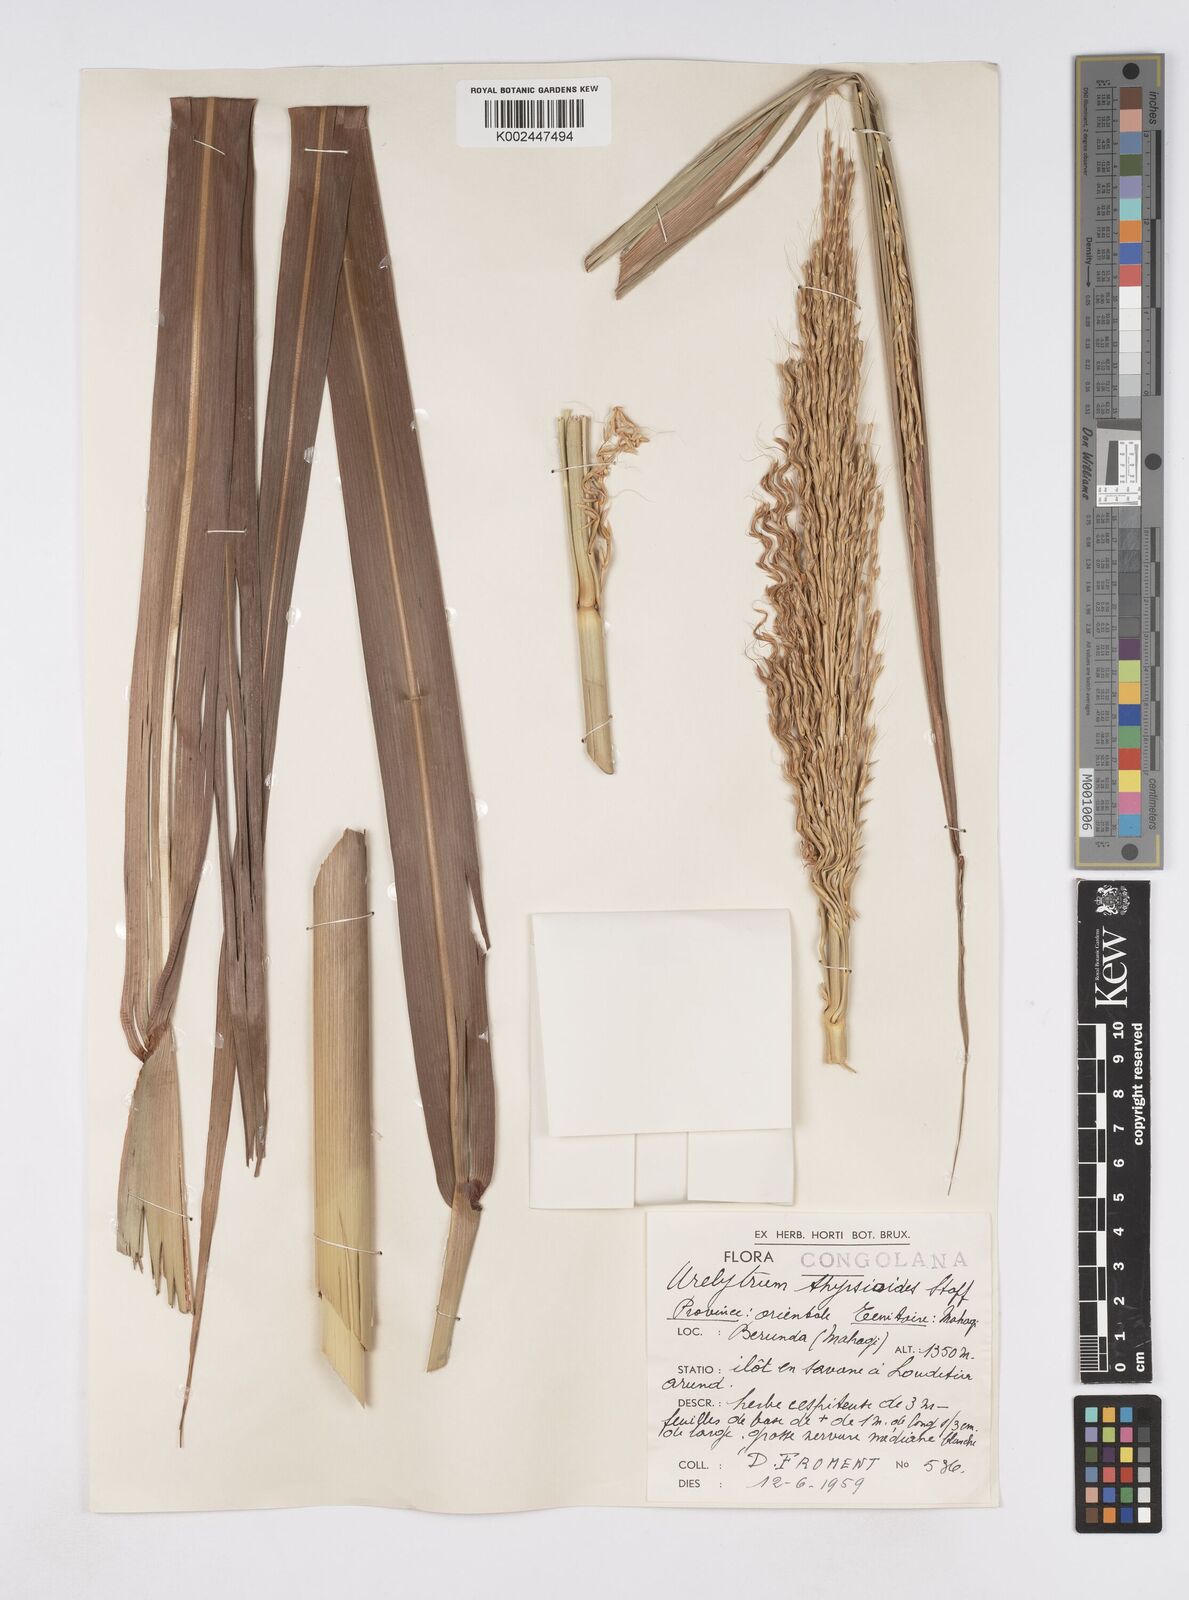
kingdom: Plantae
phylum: Tracheophyta
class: Liliopsida
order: Poales
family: Poaceae
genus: Urelytrum
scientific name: Urelytrum giganteum
